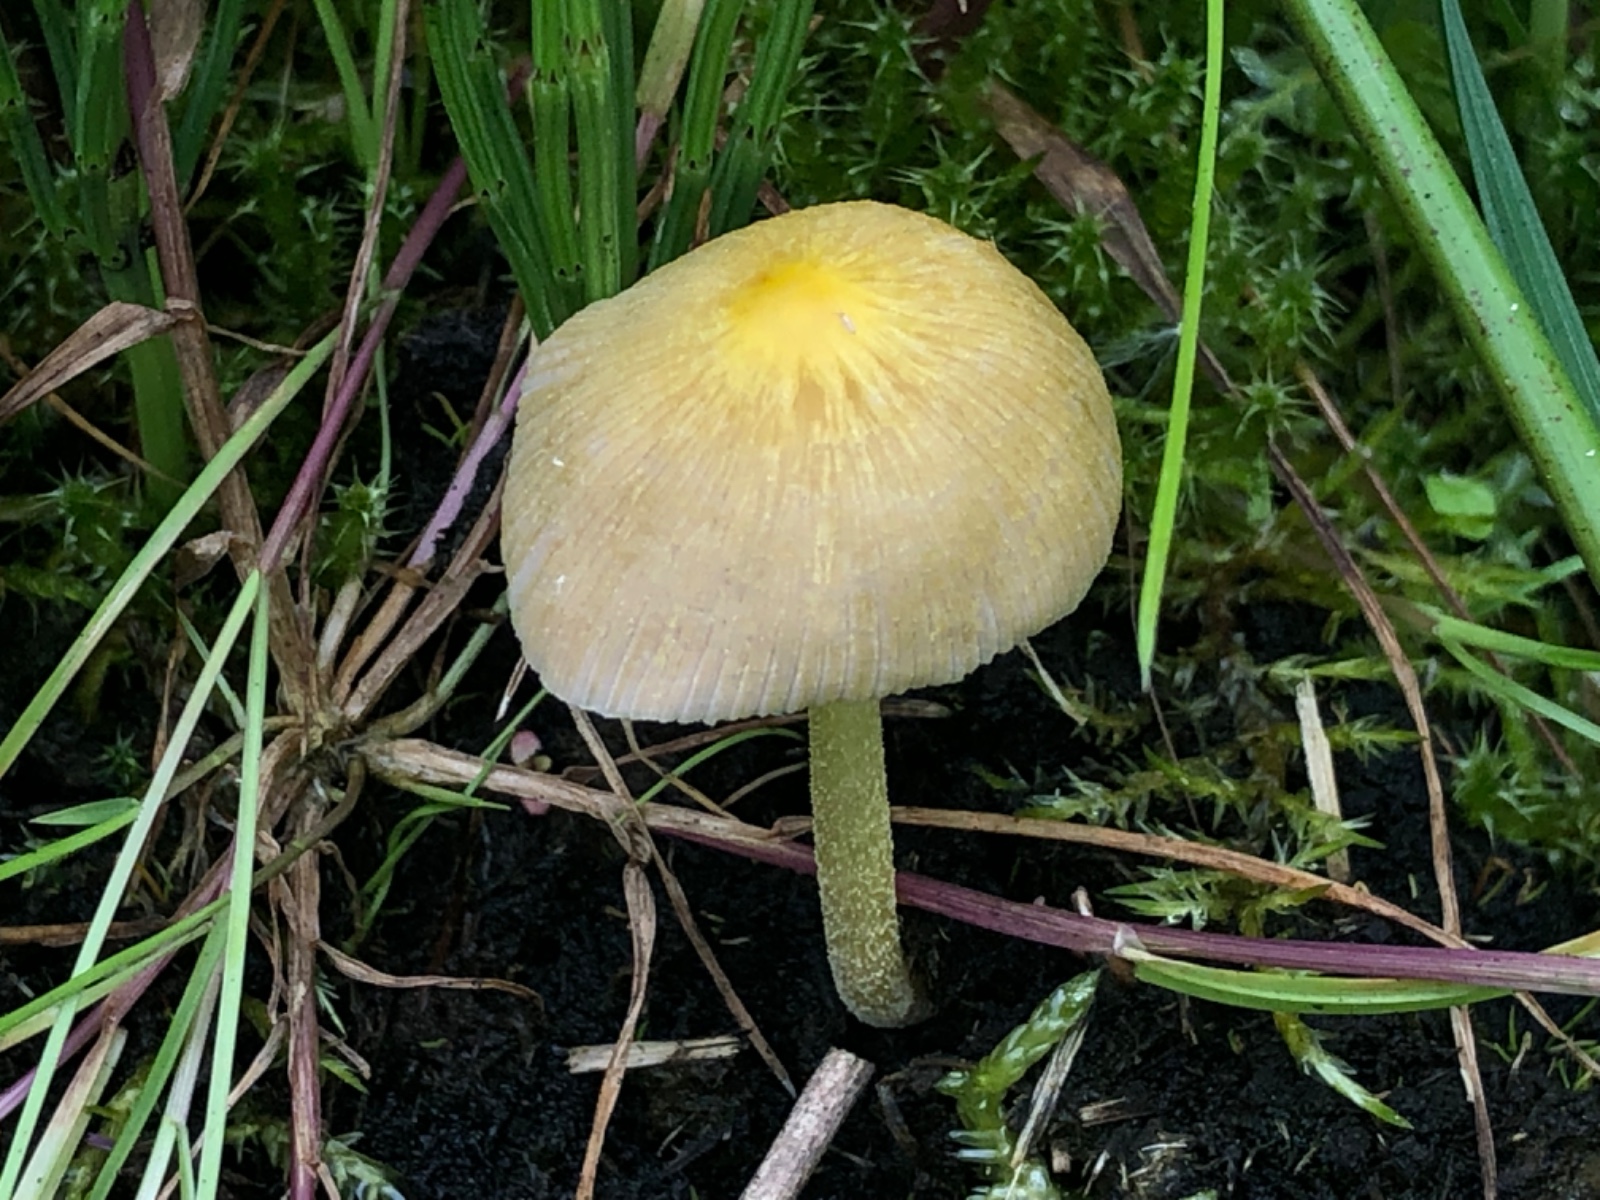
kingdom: Fungi
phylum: Basidiomycota
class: Agaricomycetes
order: Agaricales
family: Bolbitiaceae
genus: Bolbitius
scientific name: Bolbitius titubans
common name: almindelig gulhat
